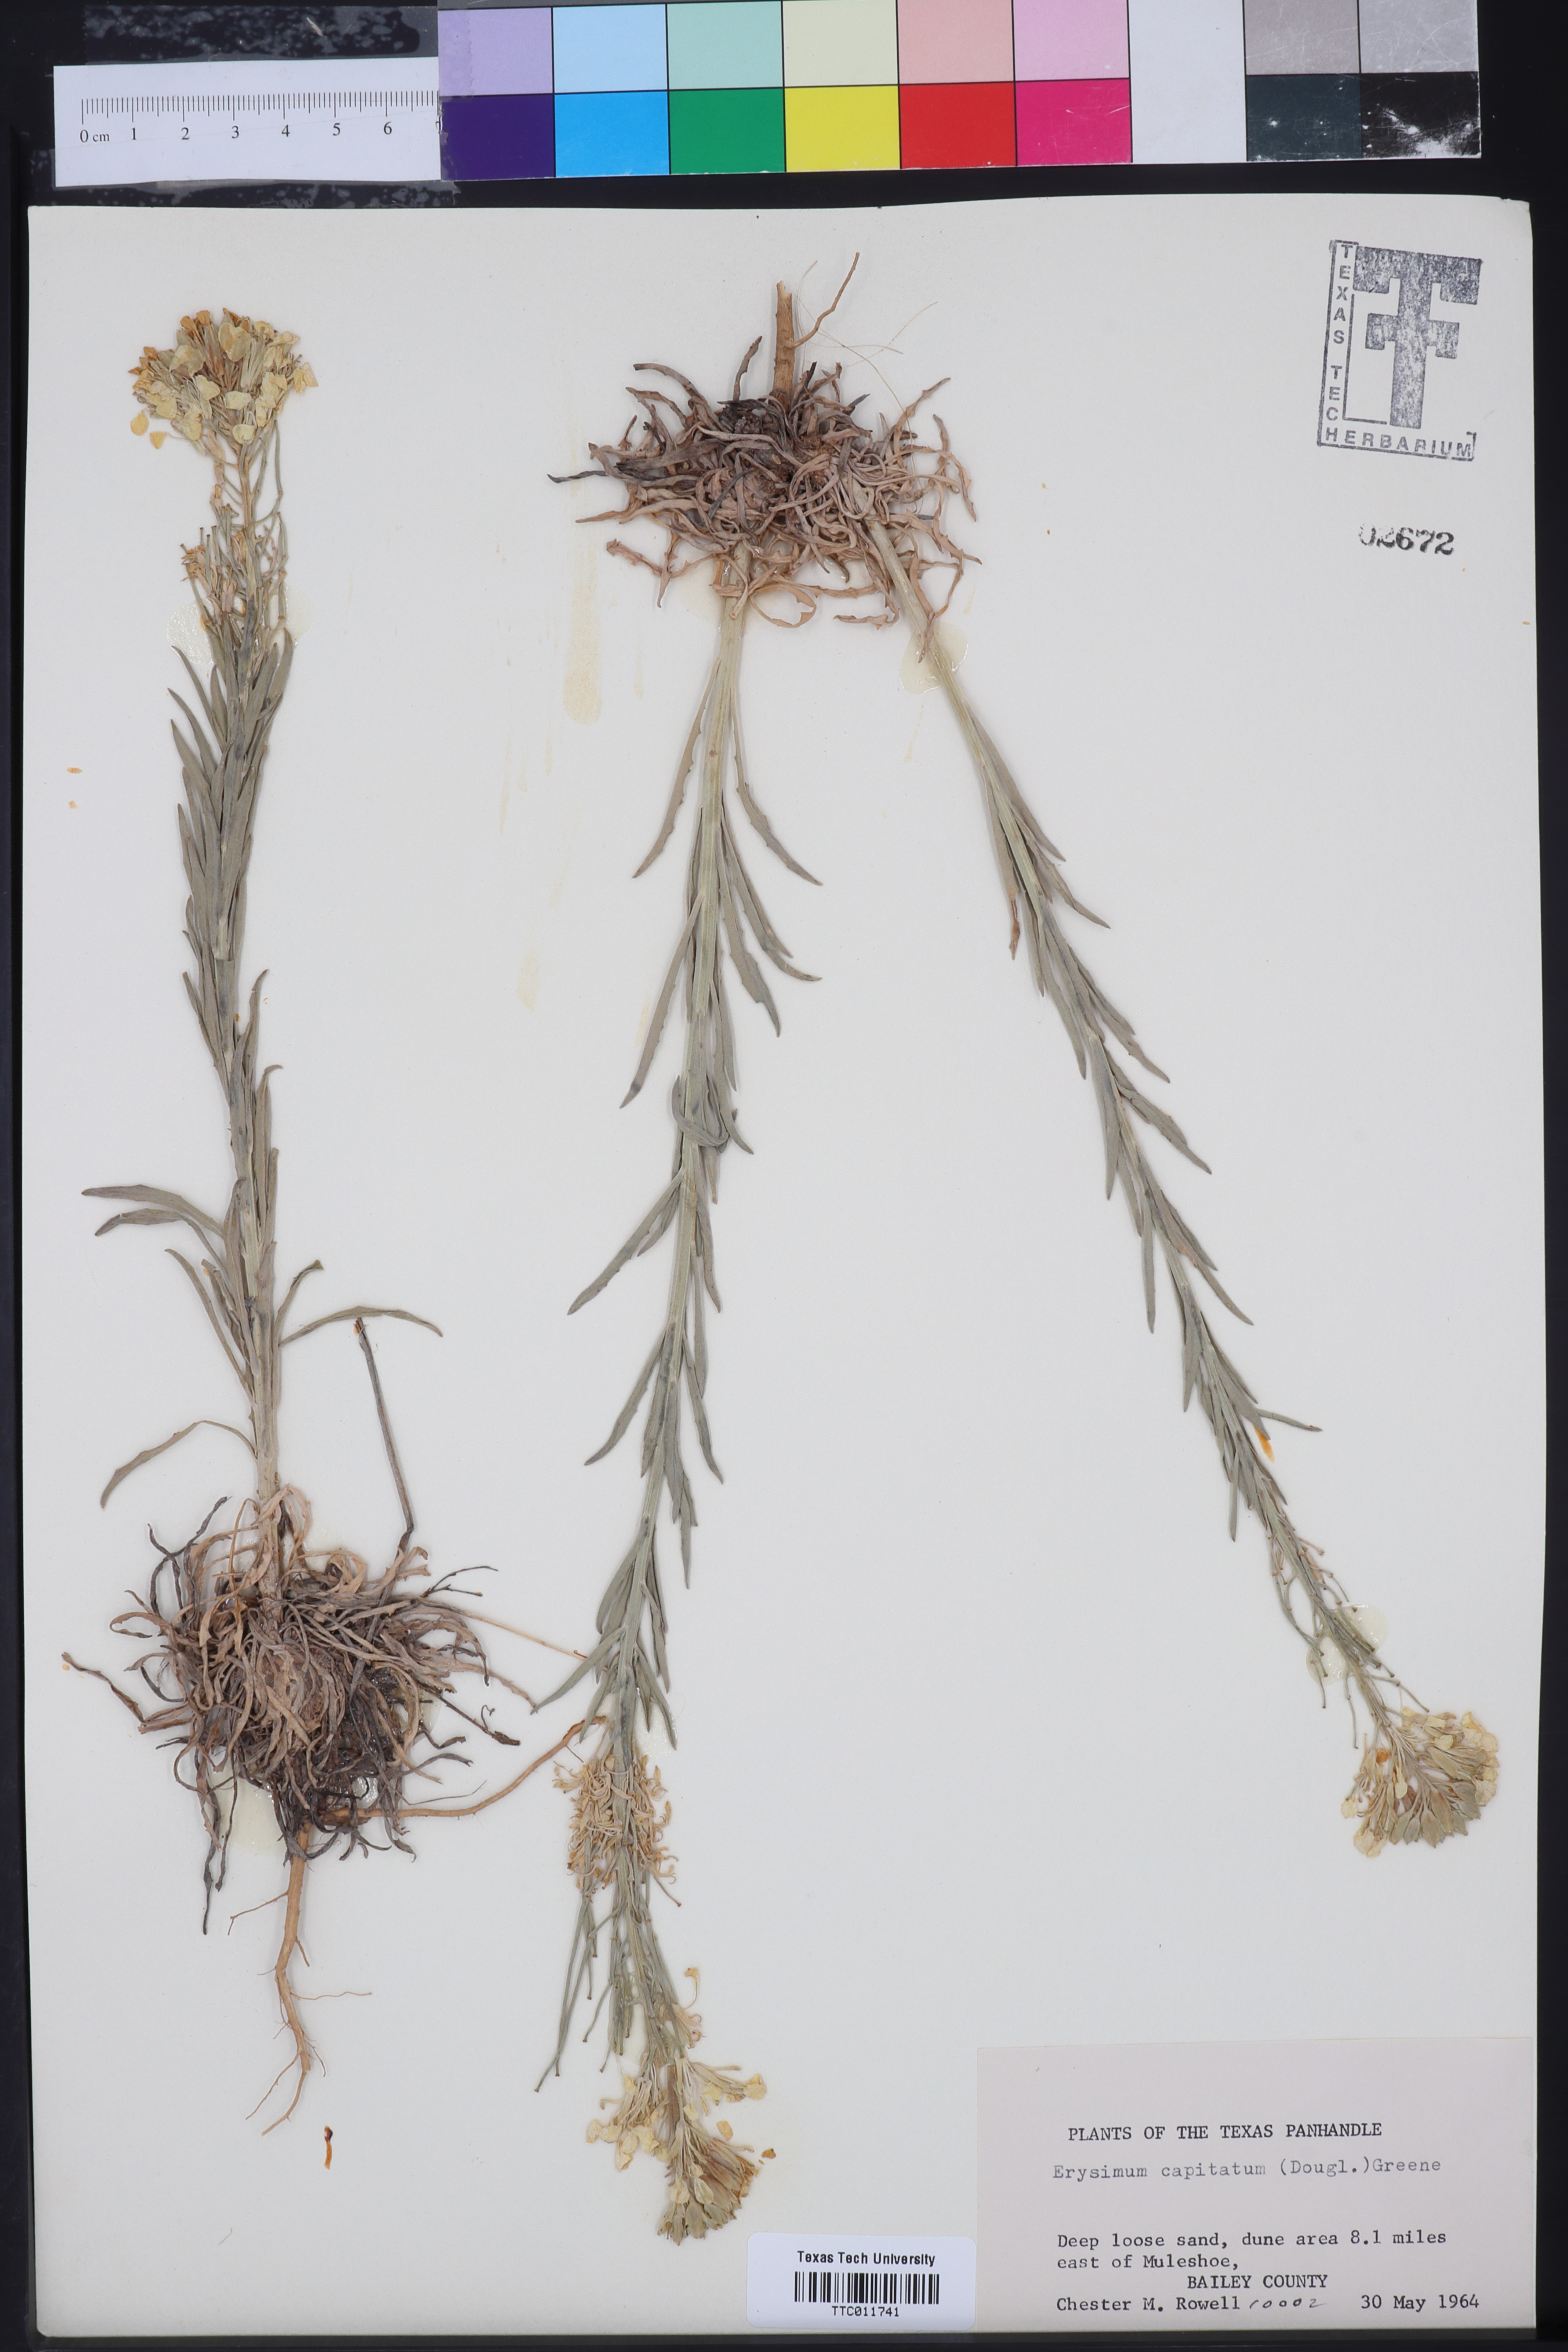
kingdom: Plantae
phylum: Tracheophyta
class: Magnoliopsida
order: Brassicales
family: Brassicaceae
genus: Erysimum
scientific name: Erysimum capitatum
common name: Western wallflower
